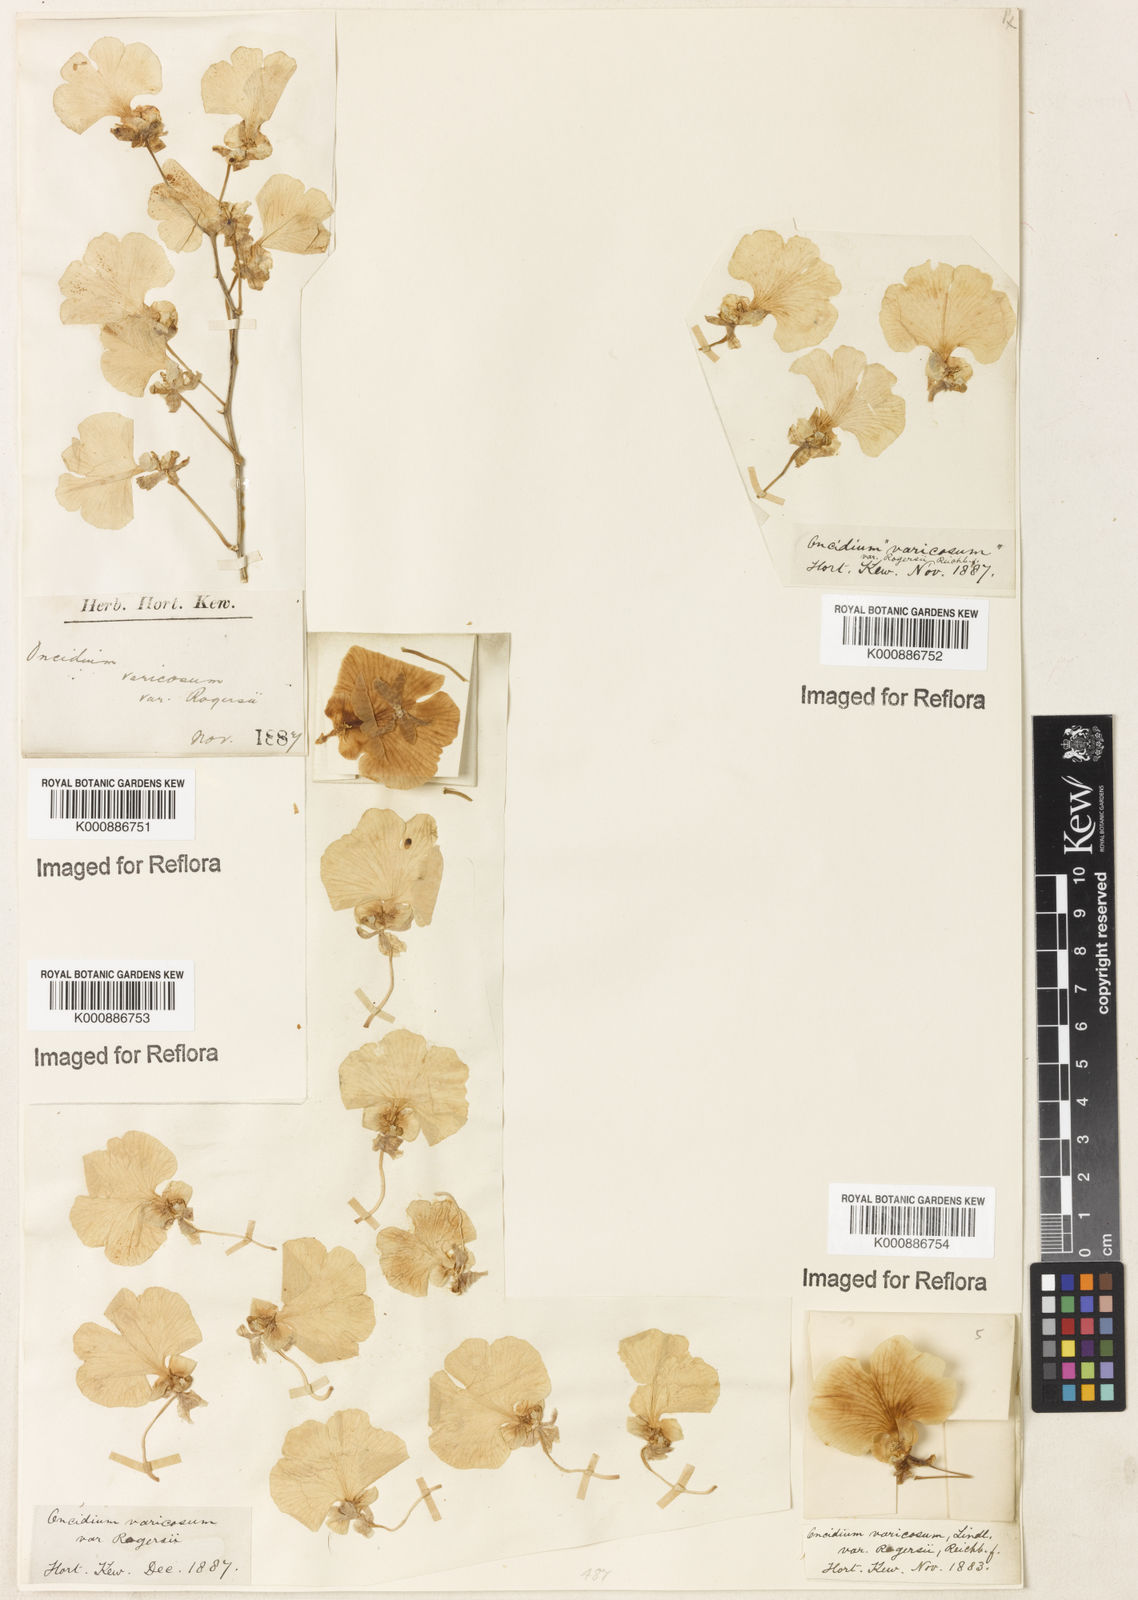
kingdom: Plantae
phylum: Tracheophyta
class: Liliopsida
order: Asparagales
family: Orchidaceae
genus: Gomesa
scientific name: Gomesa varicosa
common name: Dancing ladies
